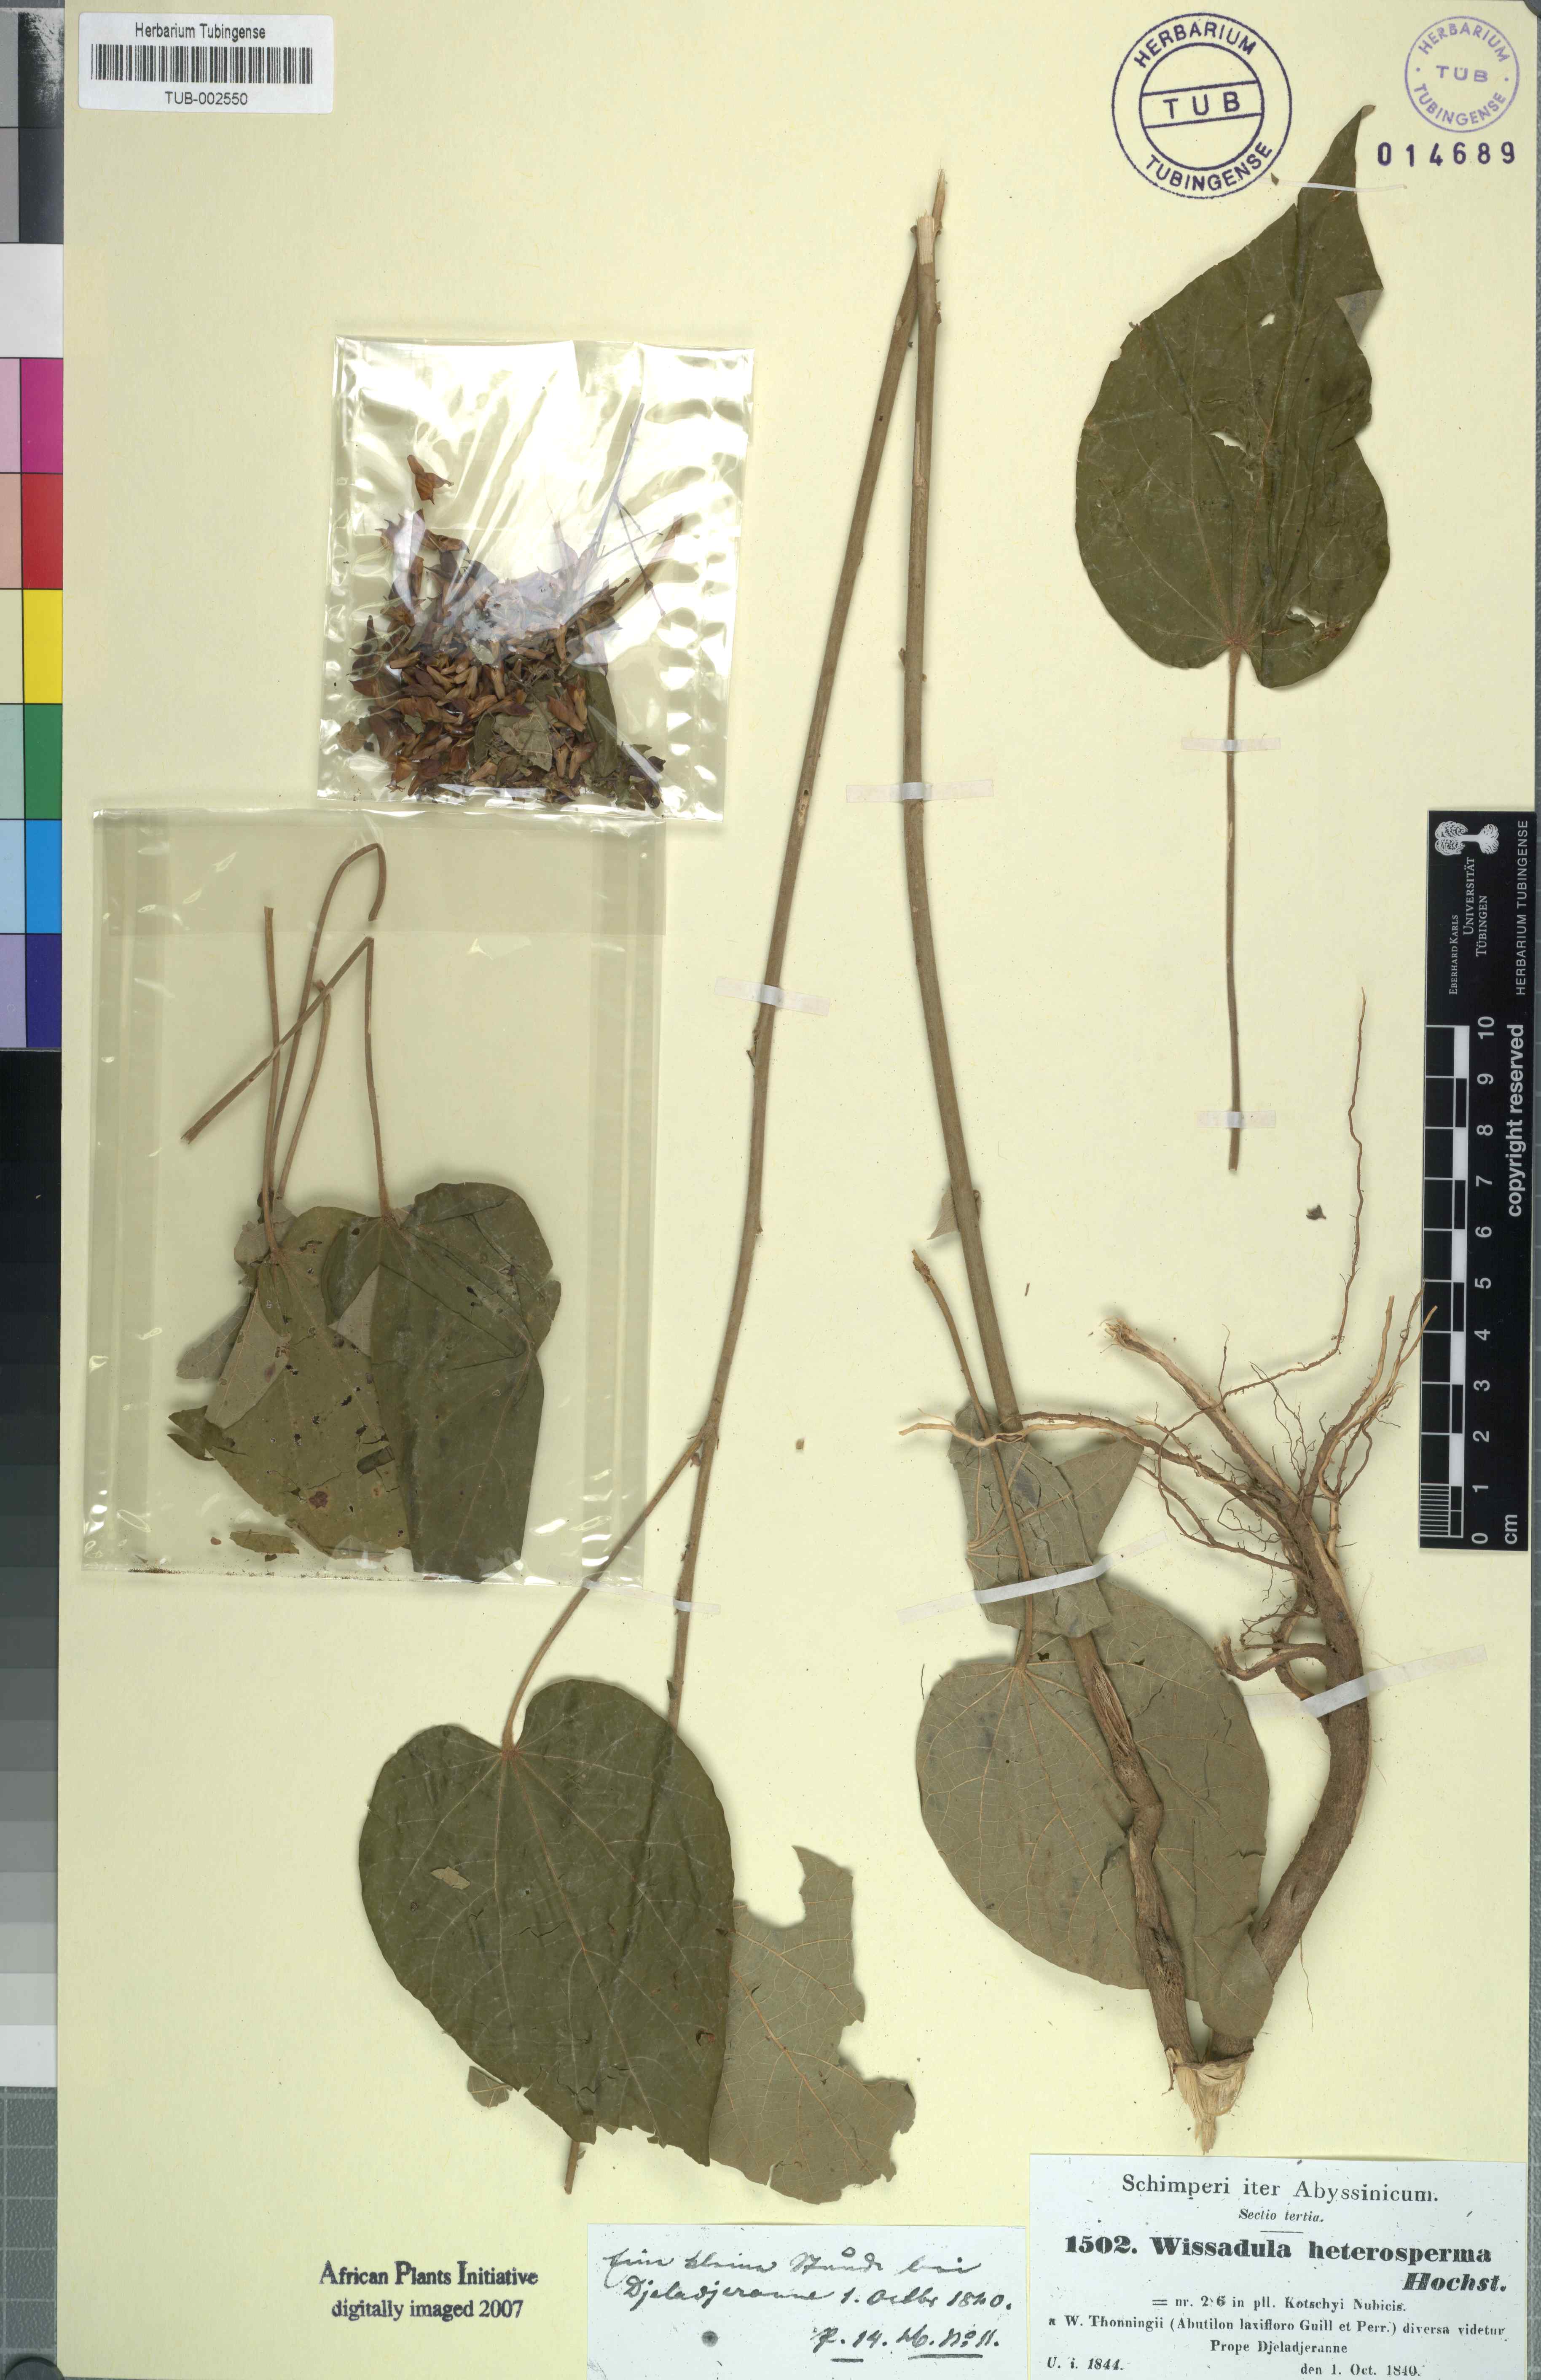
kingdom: Plantae
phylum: Tracheophyta
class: Magnoliopsida
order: Malvales
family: Malvaceae
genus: Wissadula
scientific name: Wissadula periplocifolia
